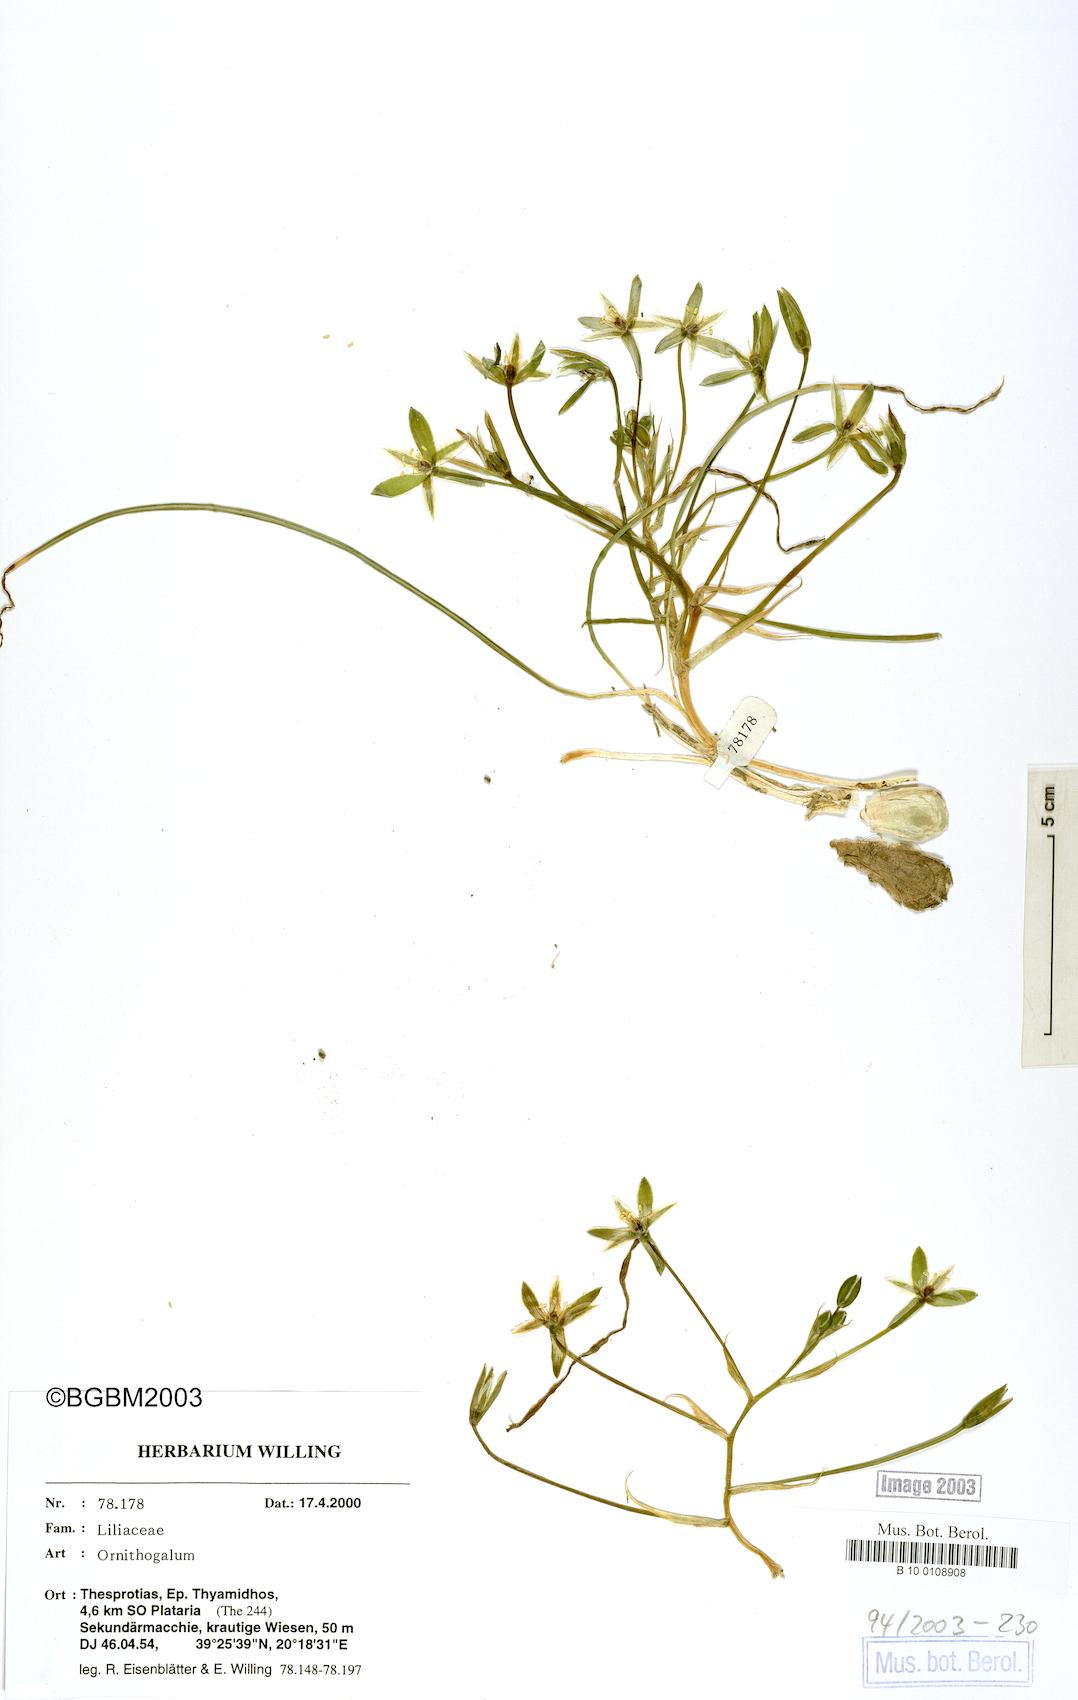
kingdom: Plantae
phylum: Tracheophyta
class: Liliopsida
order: Asparagales
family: Asparagaceae
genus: Ornithogalum
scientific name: Ornithogalum
